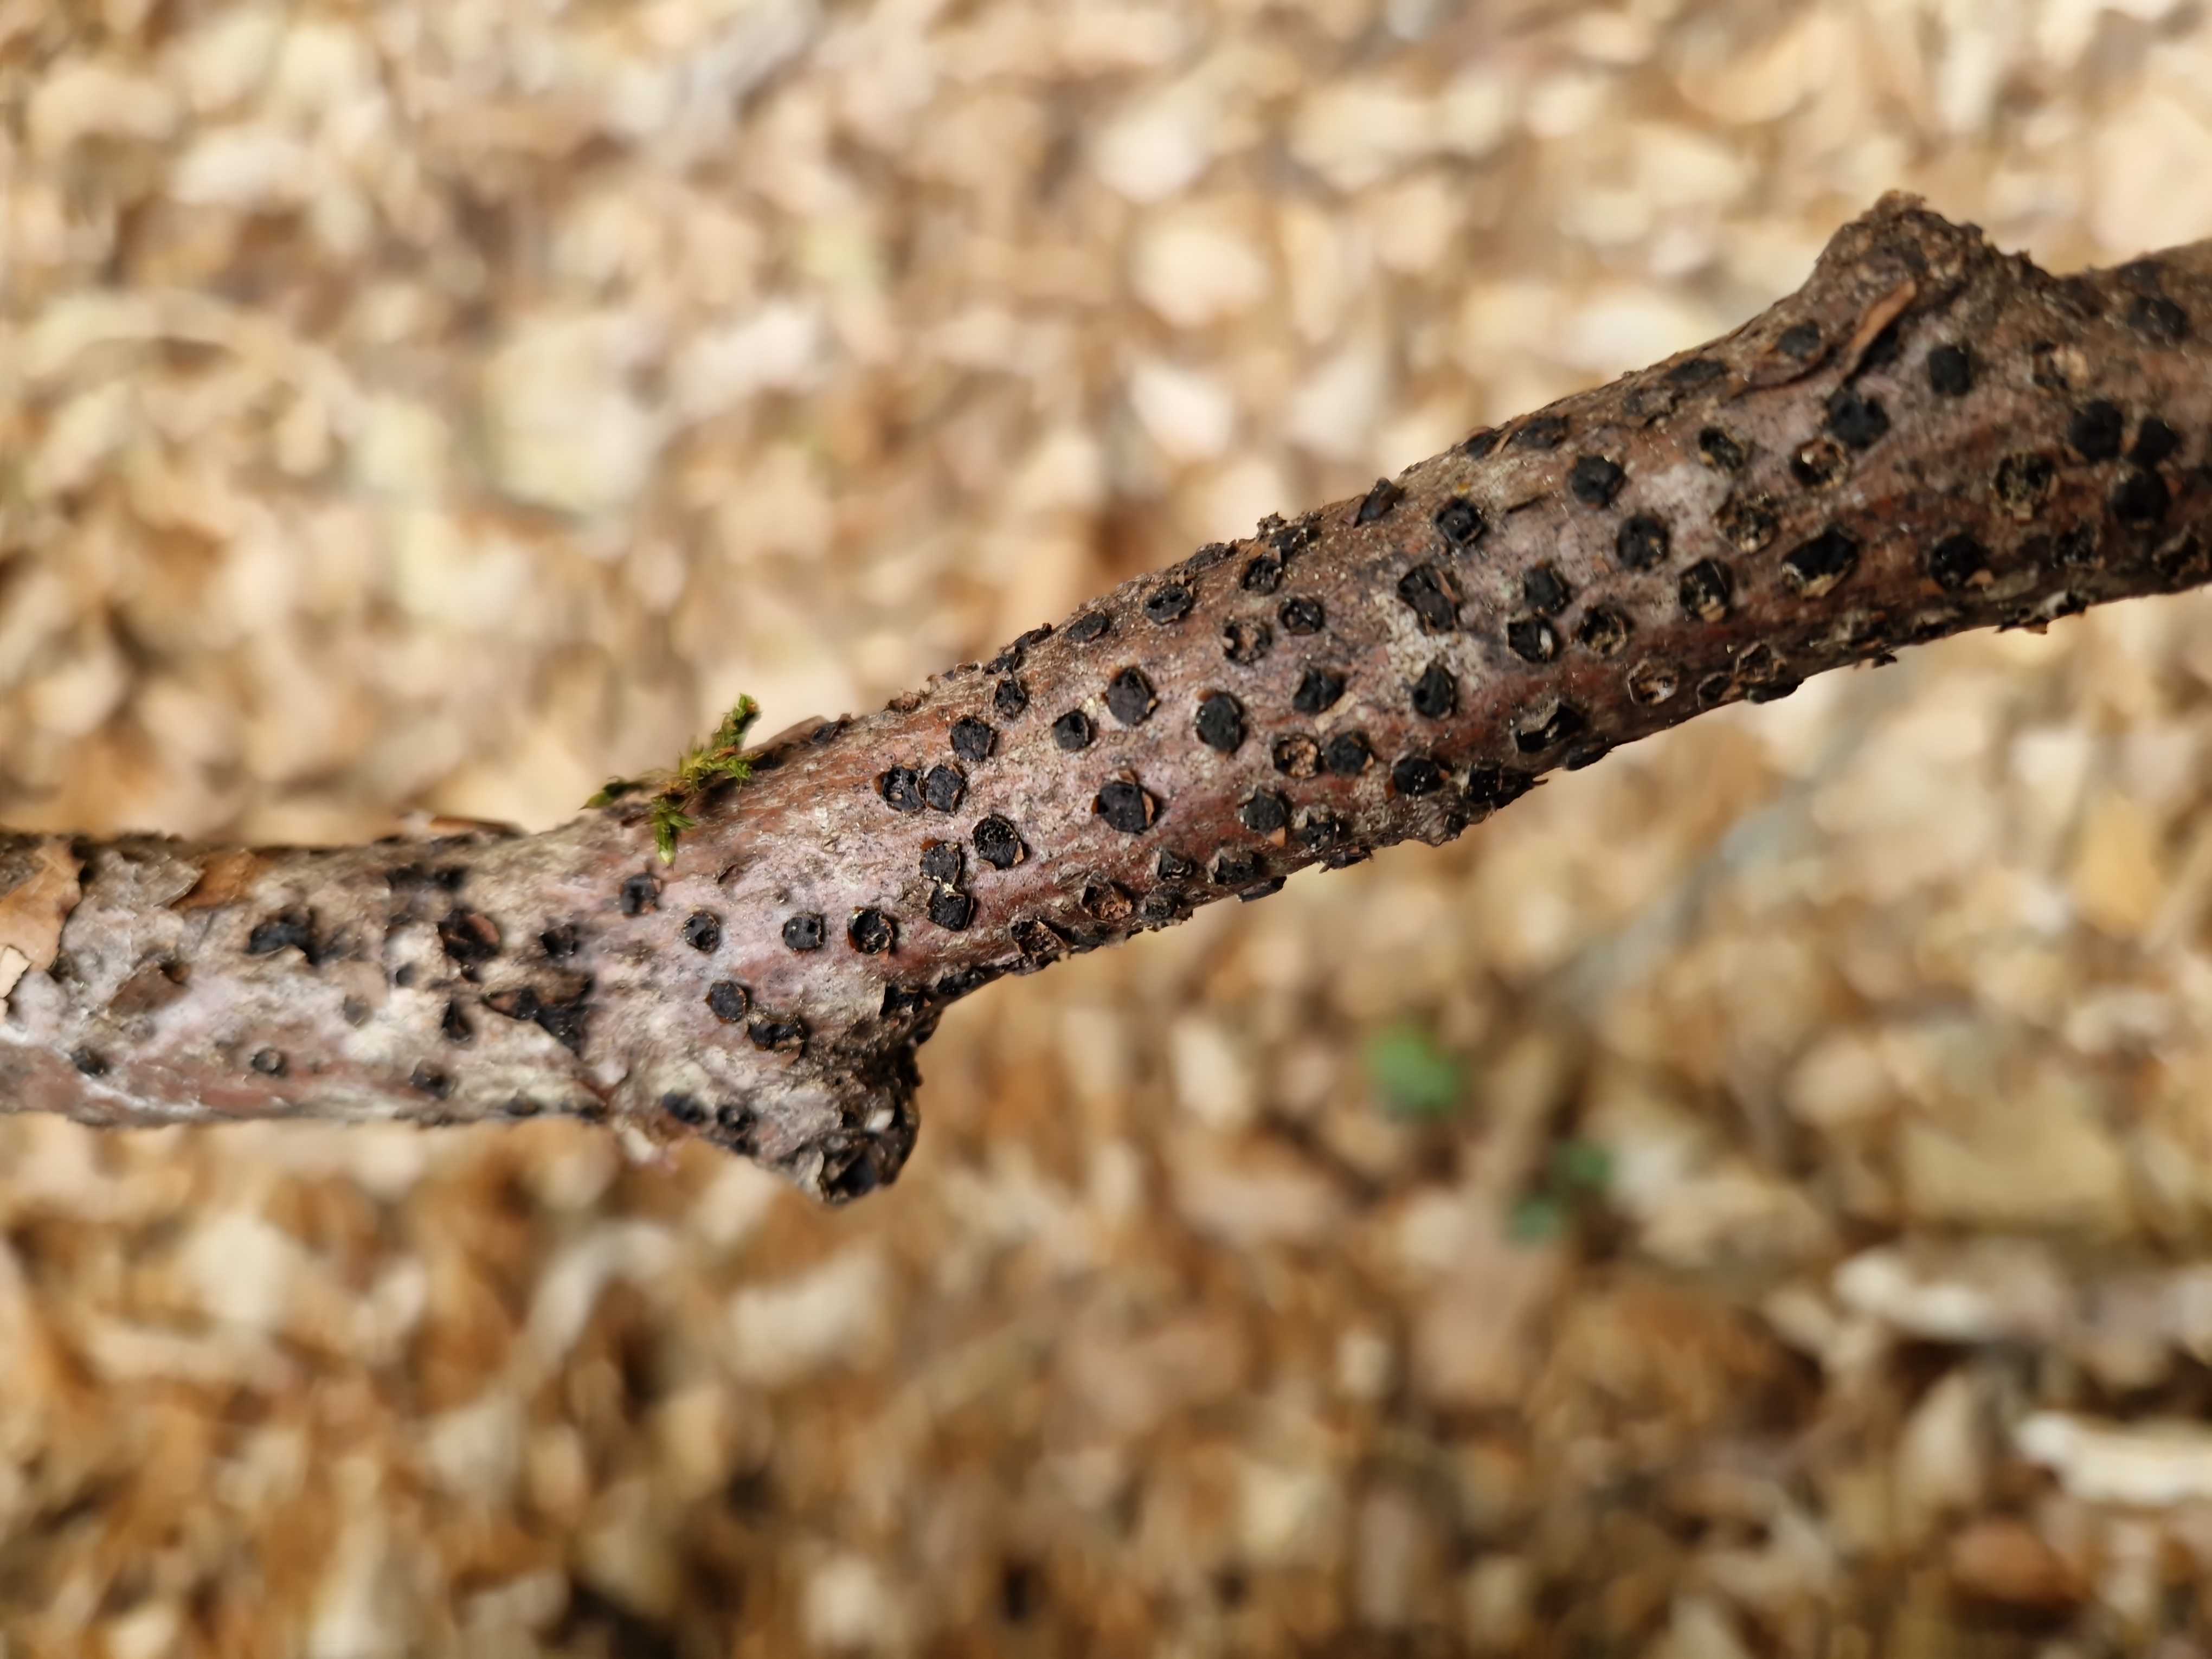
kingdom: Fungi
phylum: Ascomycota
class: Sordariomycetes
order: Xylariales
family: Diatrypaceae
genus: Diatrype
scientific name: Diatrype disciformis
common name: kant-kulskorpe
